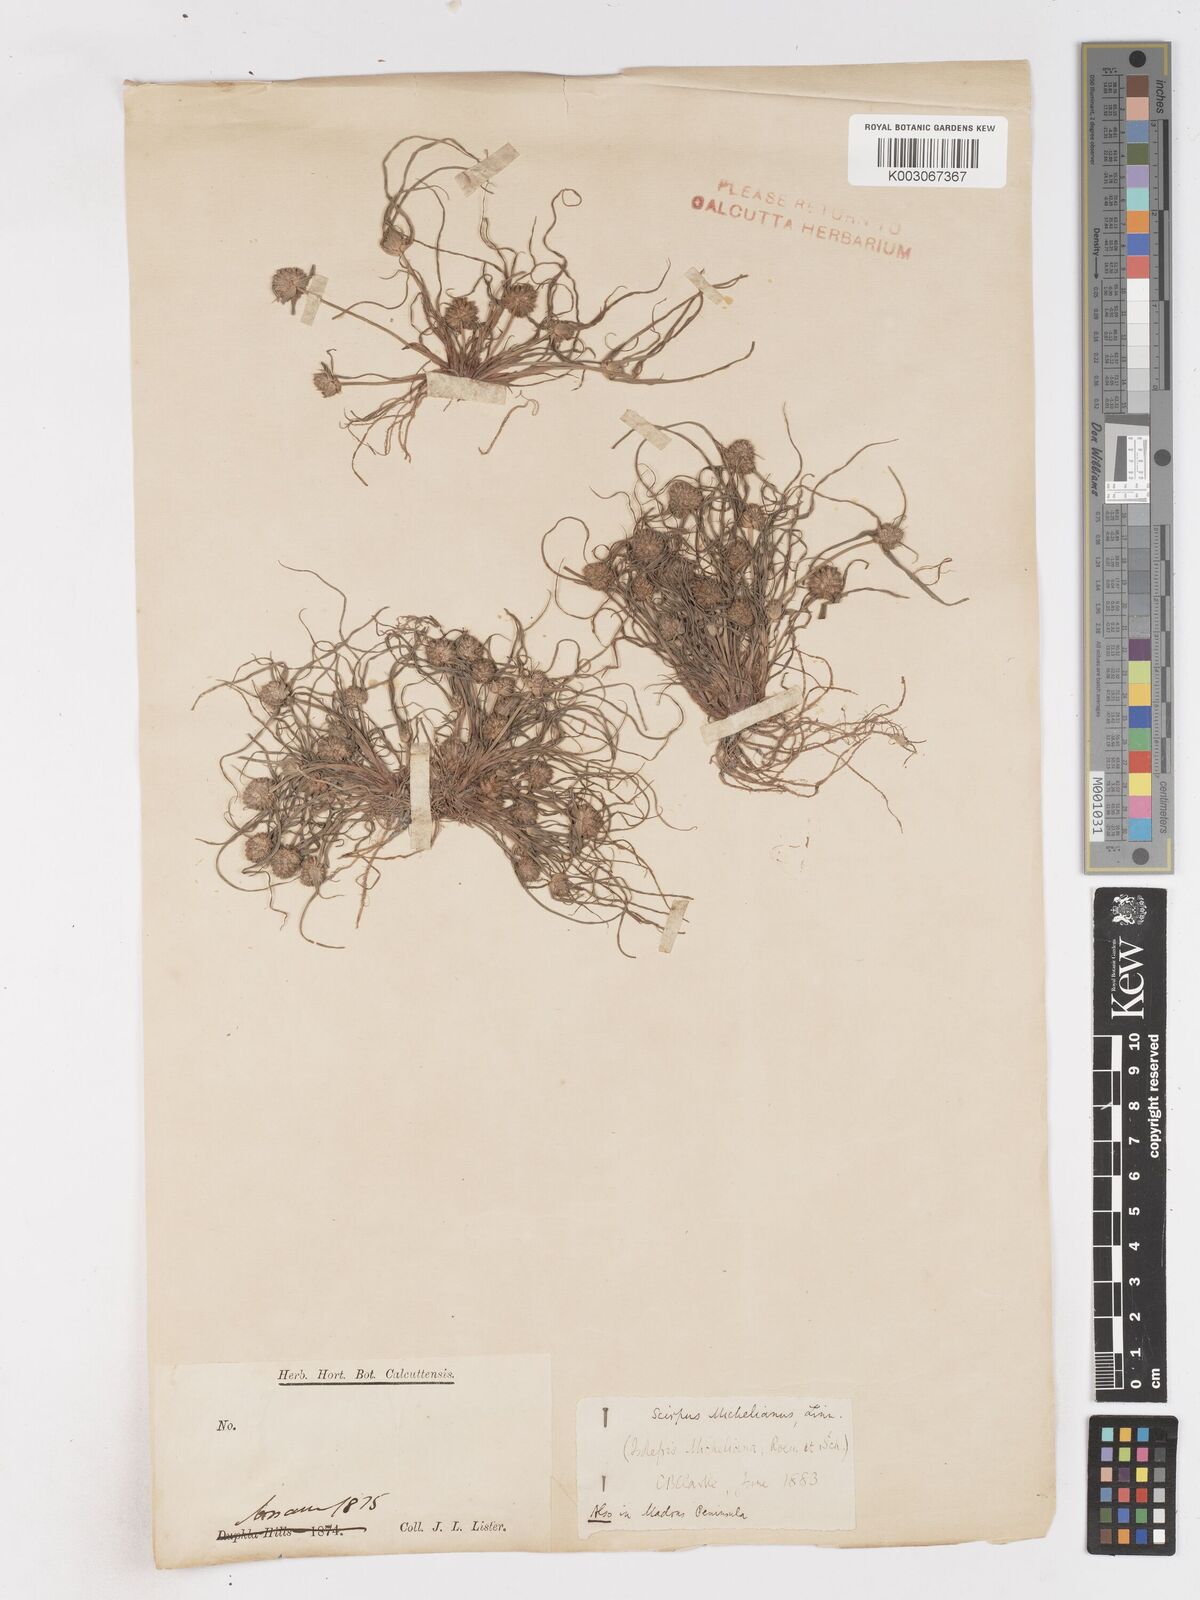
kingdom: Plantae
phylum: Tracheophyta
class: Liliopsida
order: Poales
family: Cyperaceae
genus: Cyperus
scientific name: Cyperus michelianus
